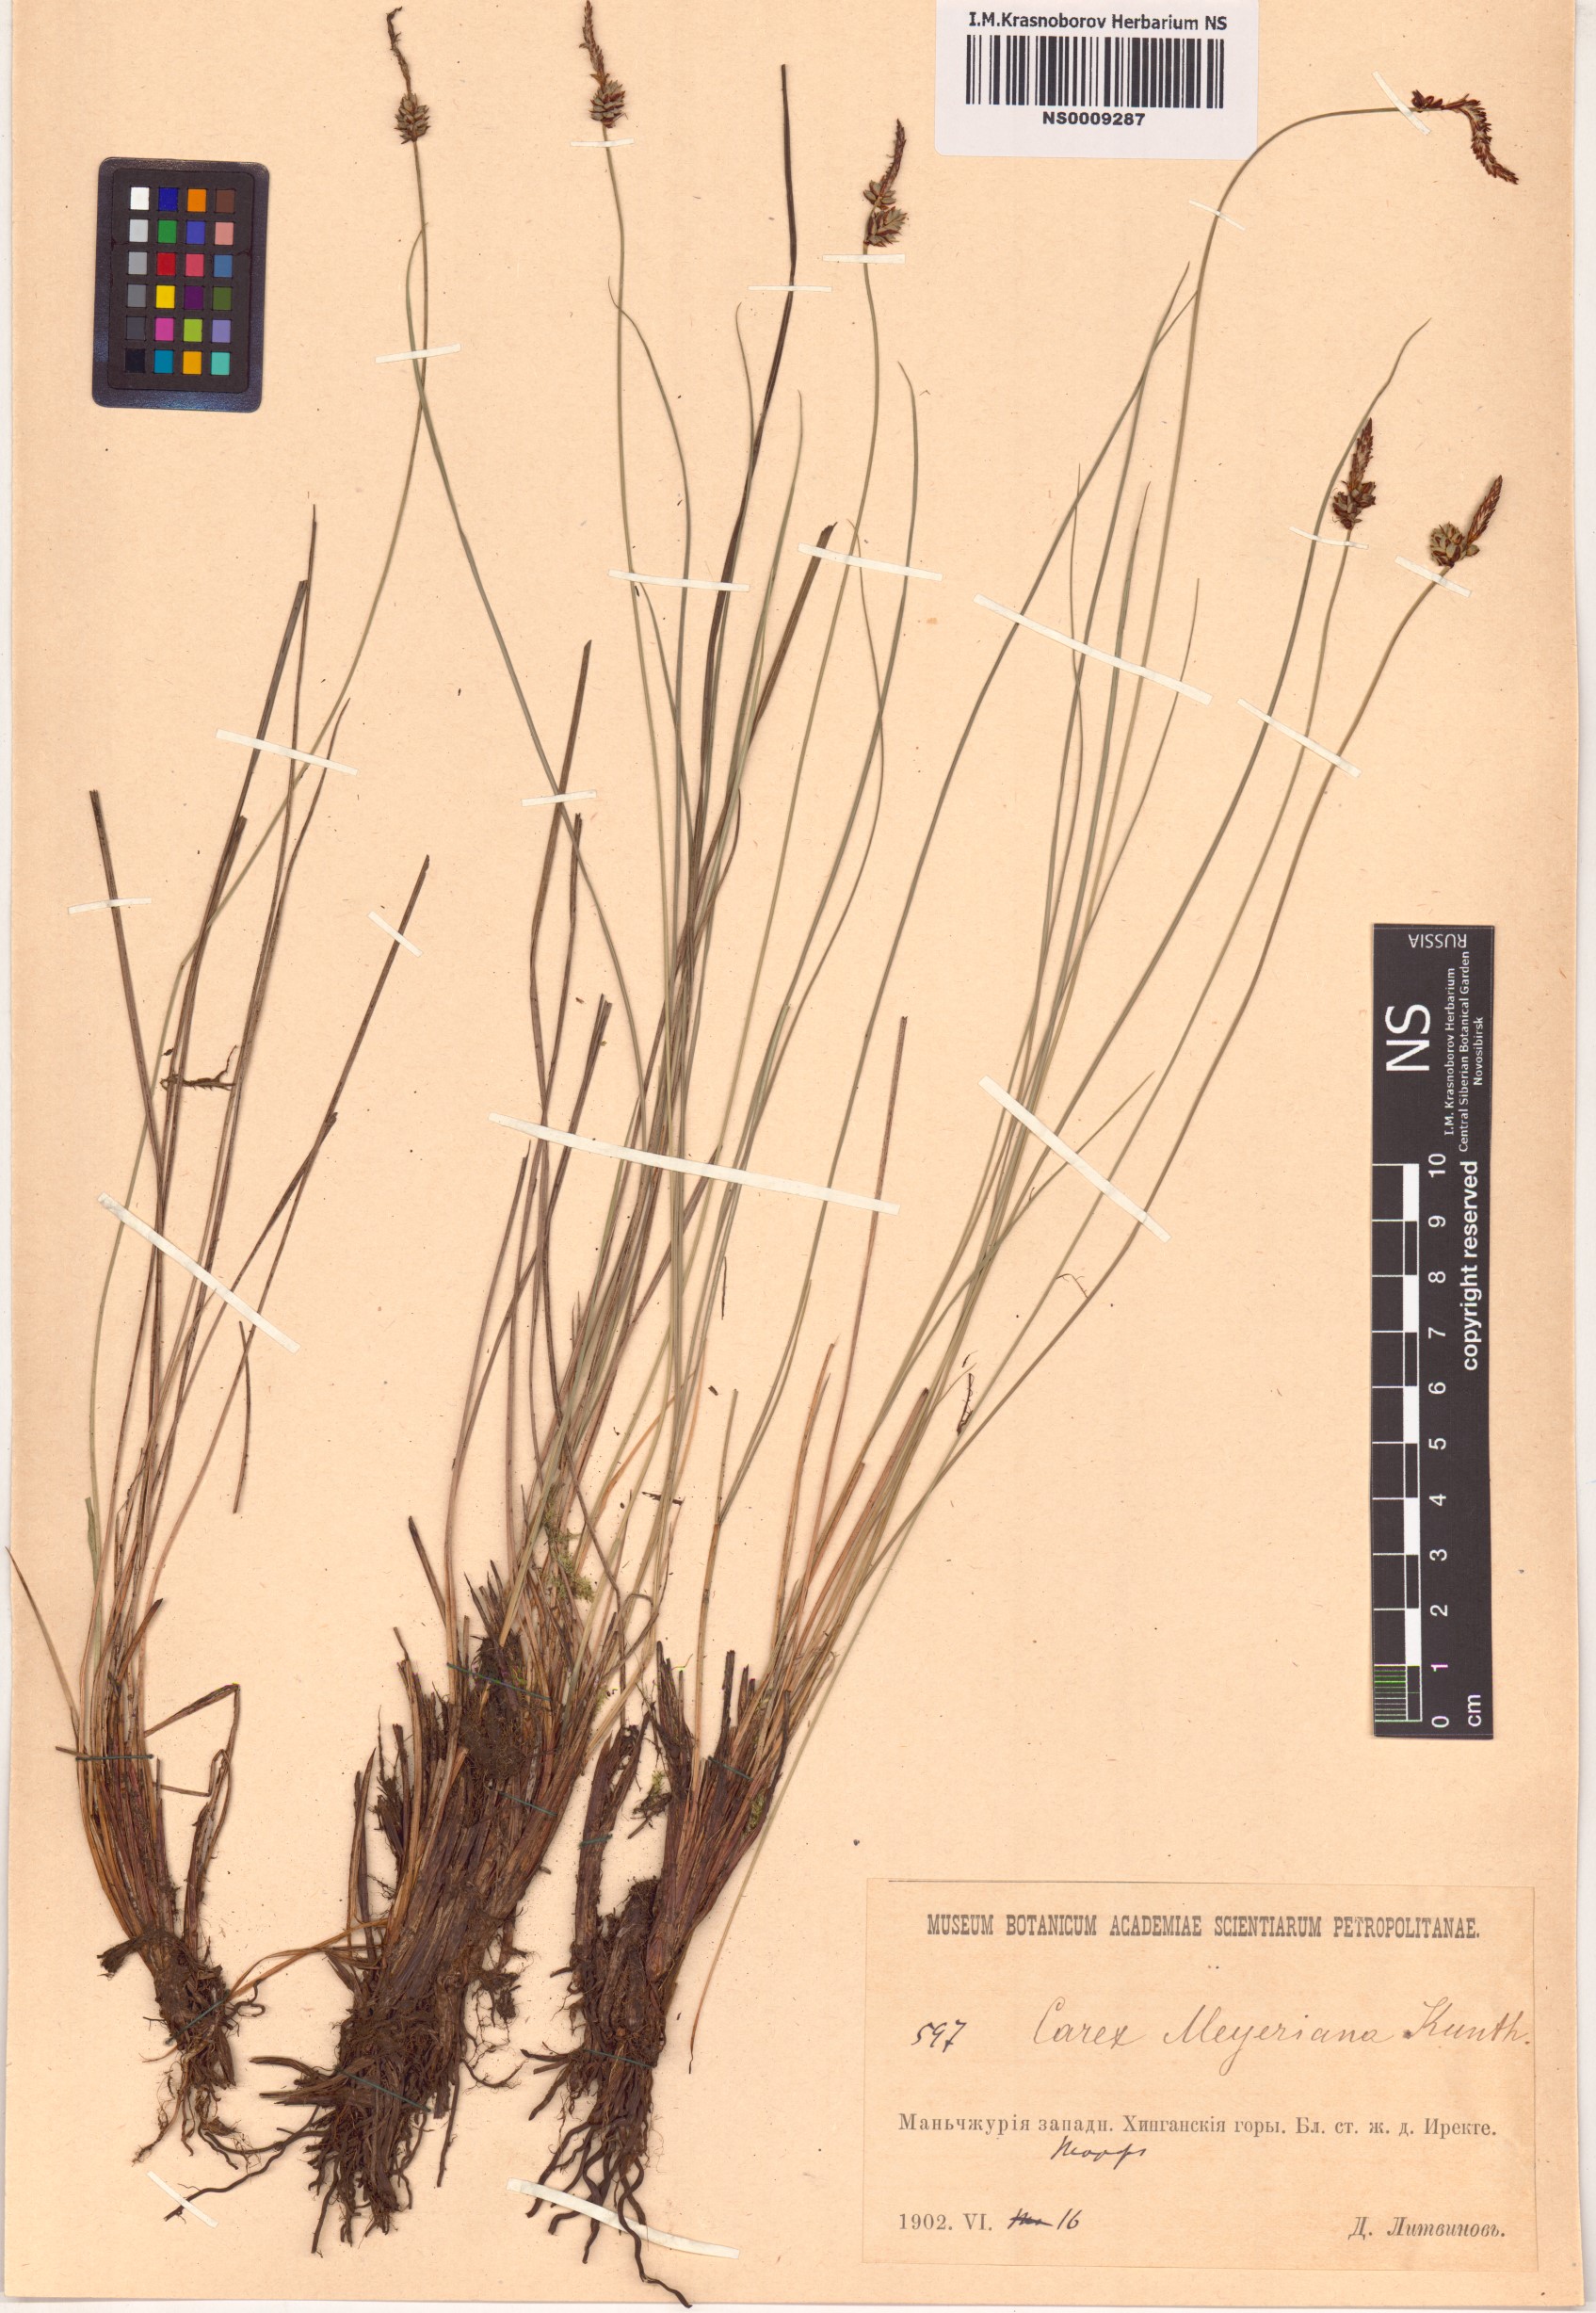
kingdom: Plantae
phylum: Tracheophyta
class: Liliopsida
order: Poales
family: Cyperaceae
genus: Carex
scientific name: Carex meyeriana
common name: Wula sedge
